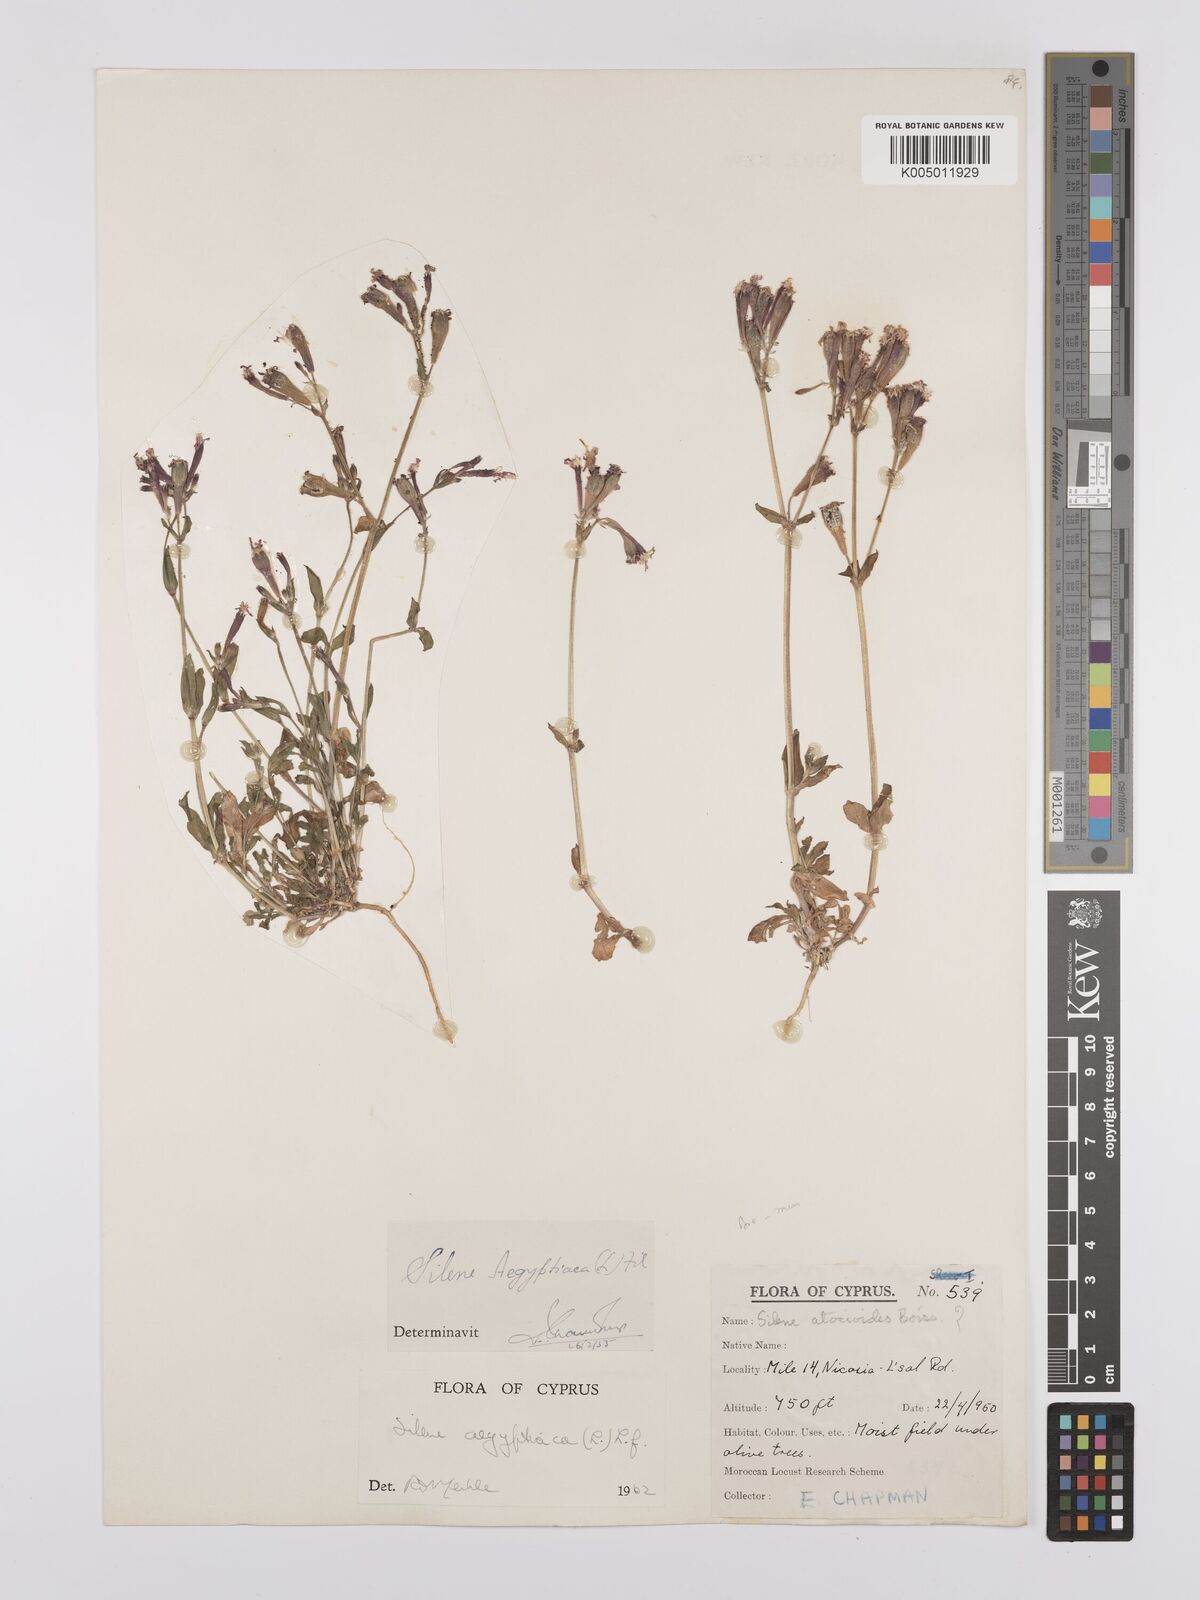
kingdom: Plantae
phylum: Tracheophyta
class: Magnoliopsida
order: Caryophyllales
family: Caryophyllaceae
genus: Silene
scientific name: Silene aegyptiaca
